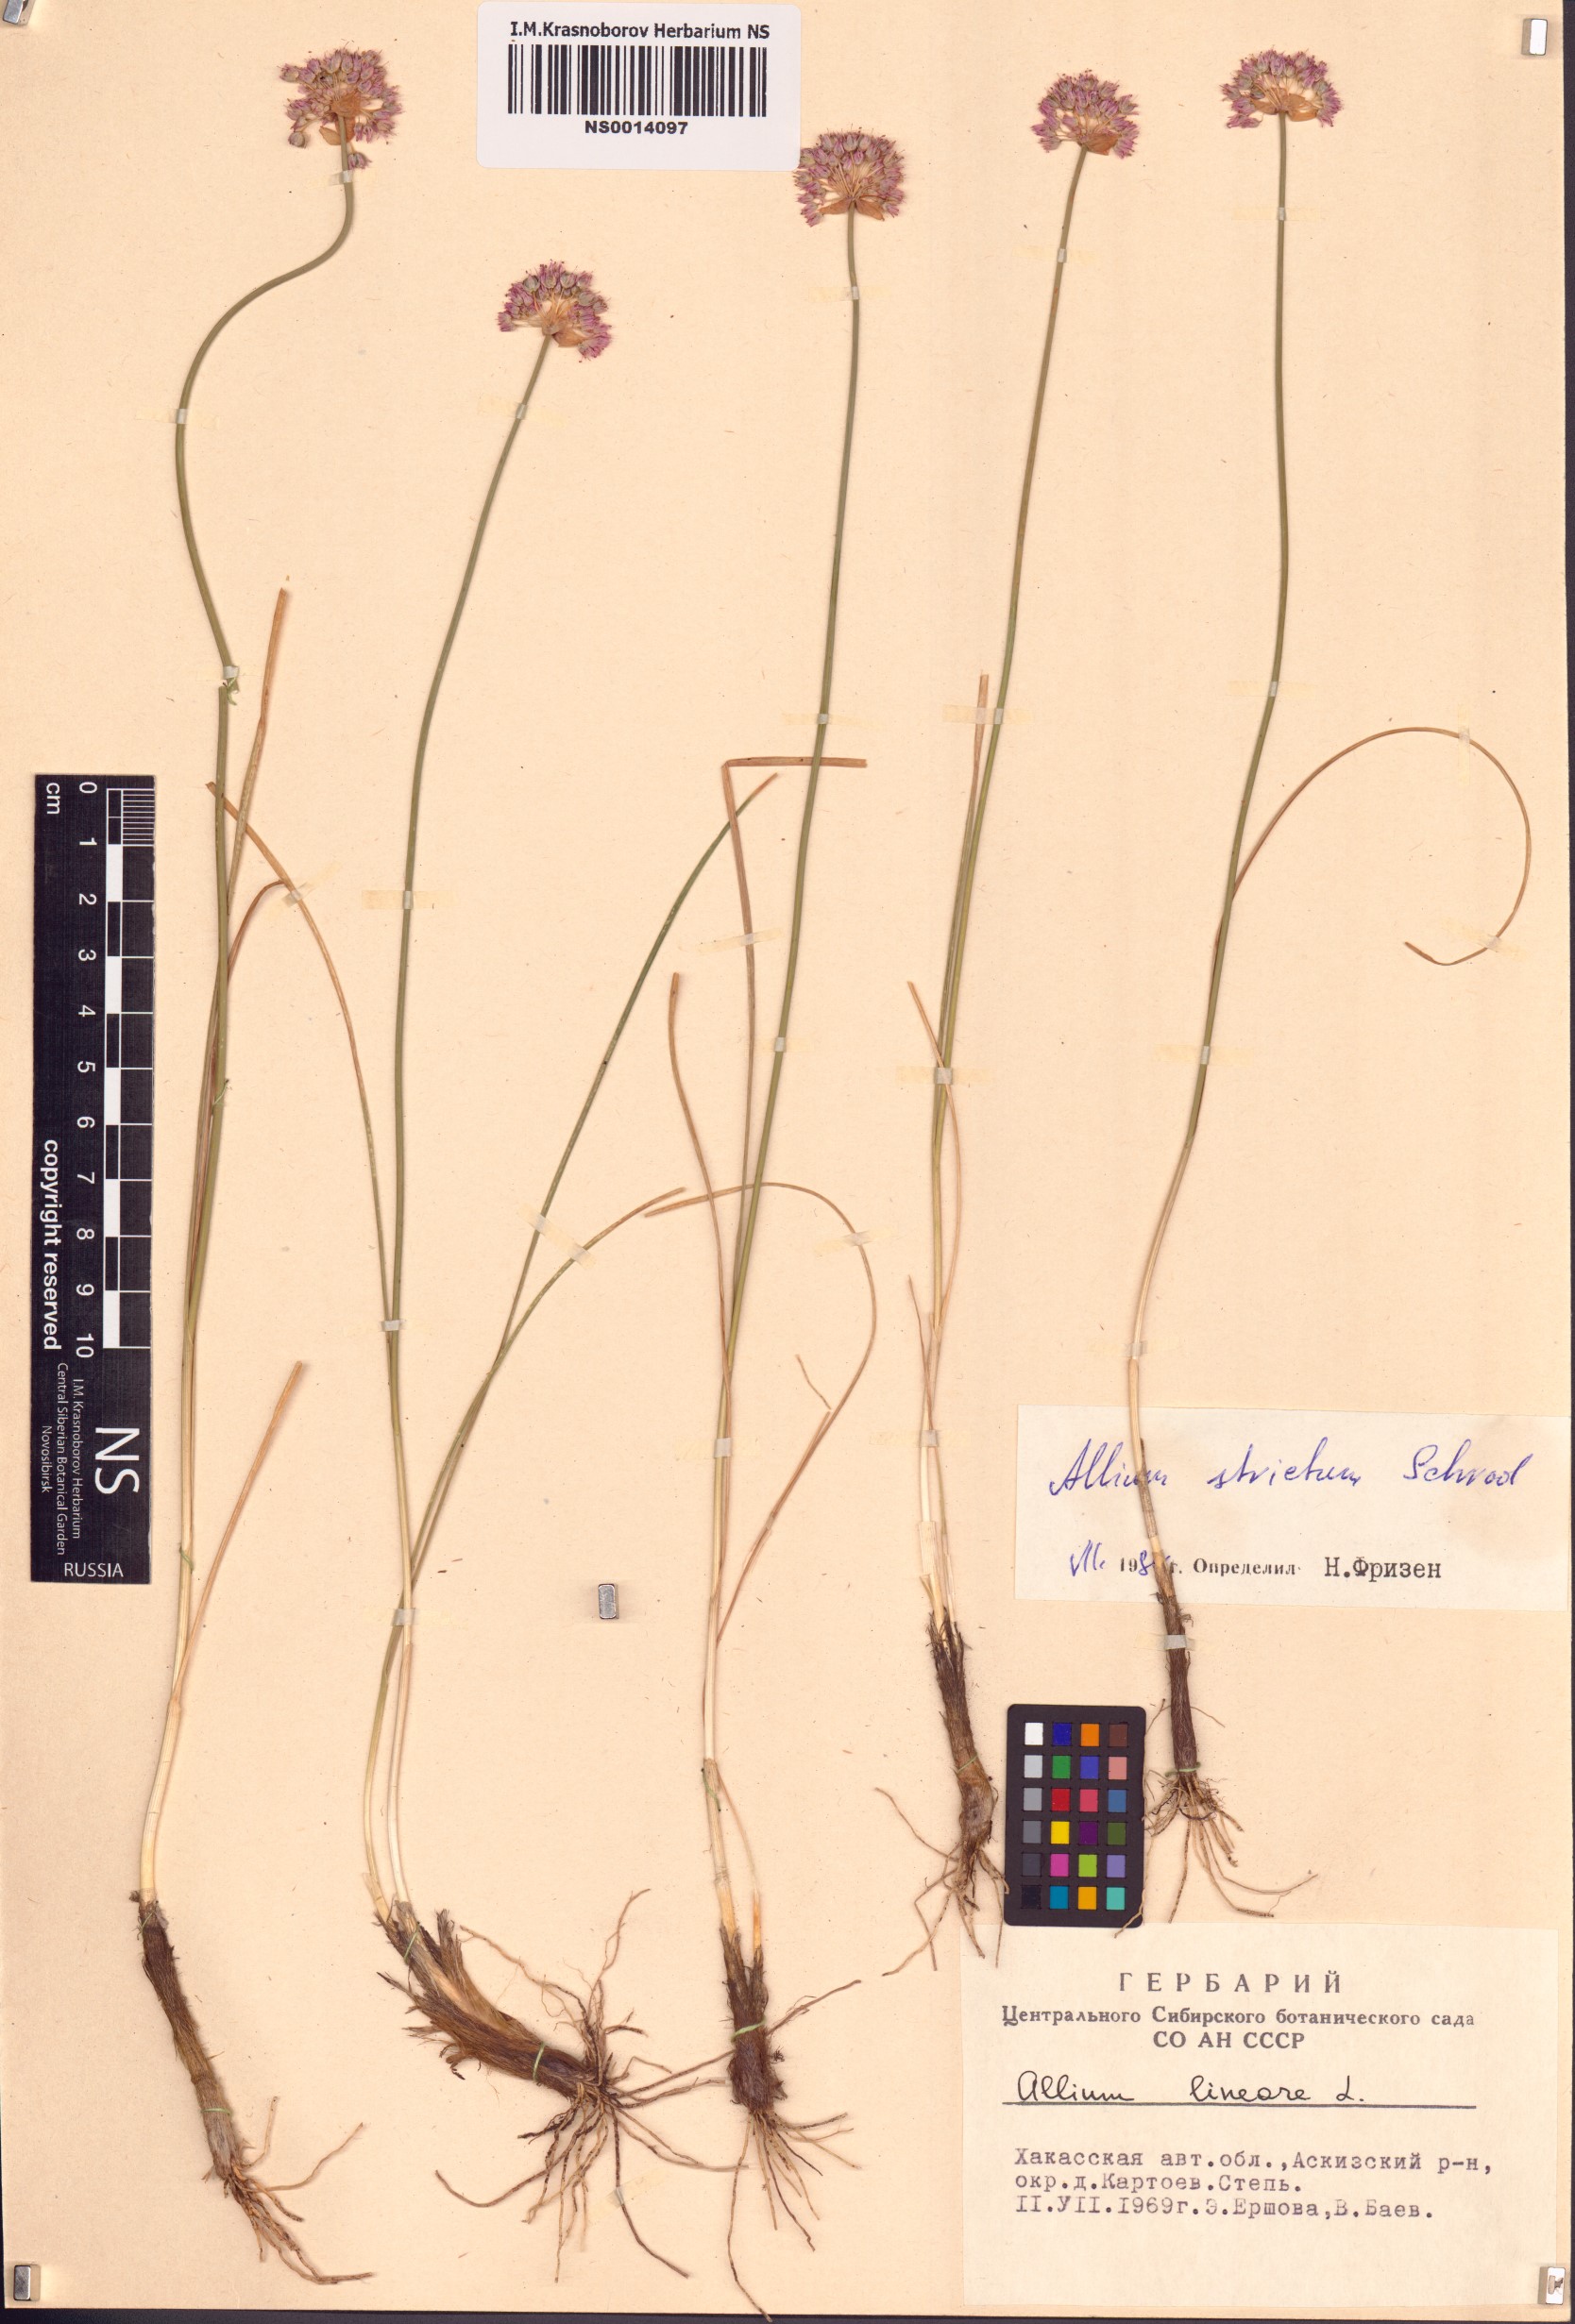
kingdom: Plantae
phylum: Tracheophyta
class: Liliopsida
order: Asparagales
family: Amaryllidaceae
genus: Allium
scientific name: Allium strictum
